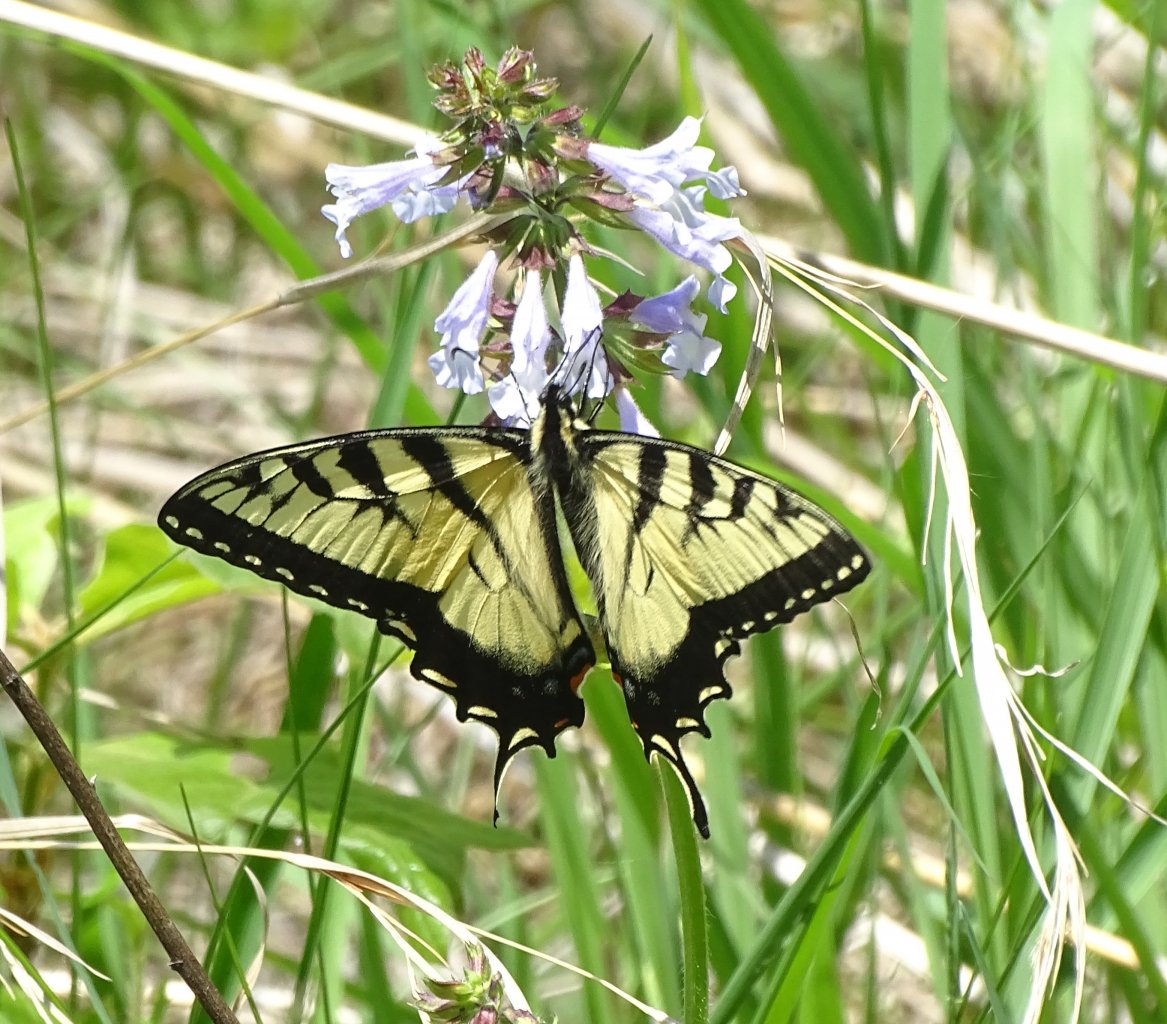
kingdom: Animalia
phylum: Arthropoda
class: Insecta
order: Lepidoptera
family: Papilionidae
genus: Pterourus
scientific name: Pterourus glaucus
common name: Eastern Tiger Swallowtail
